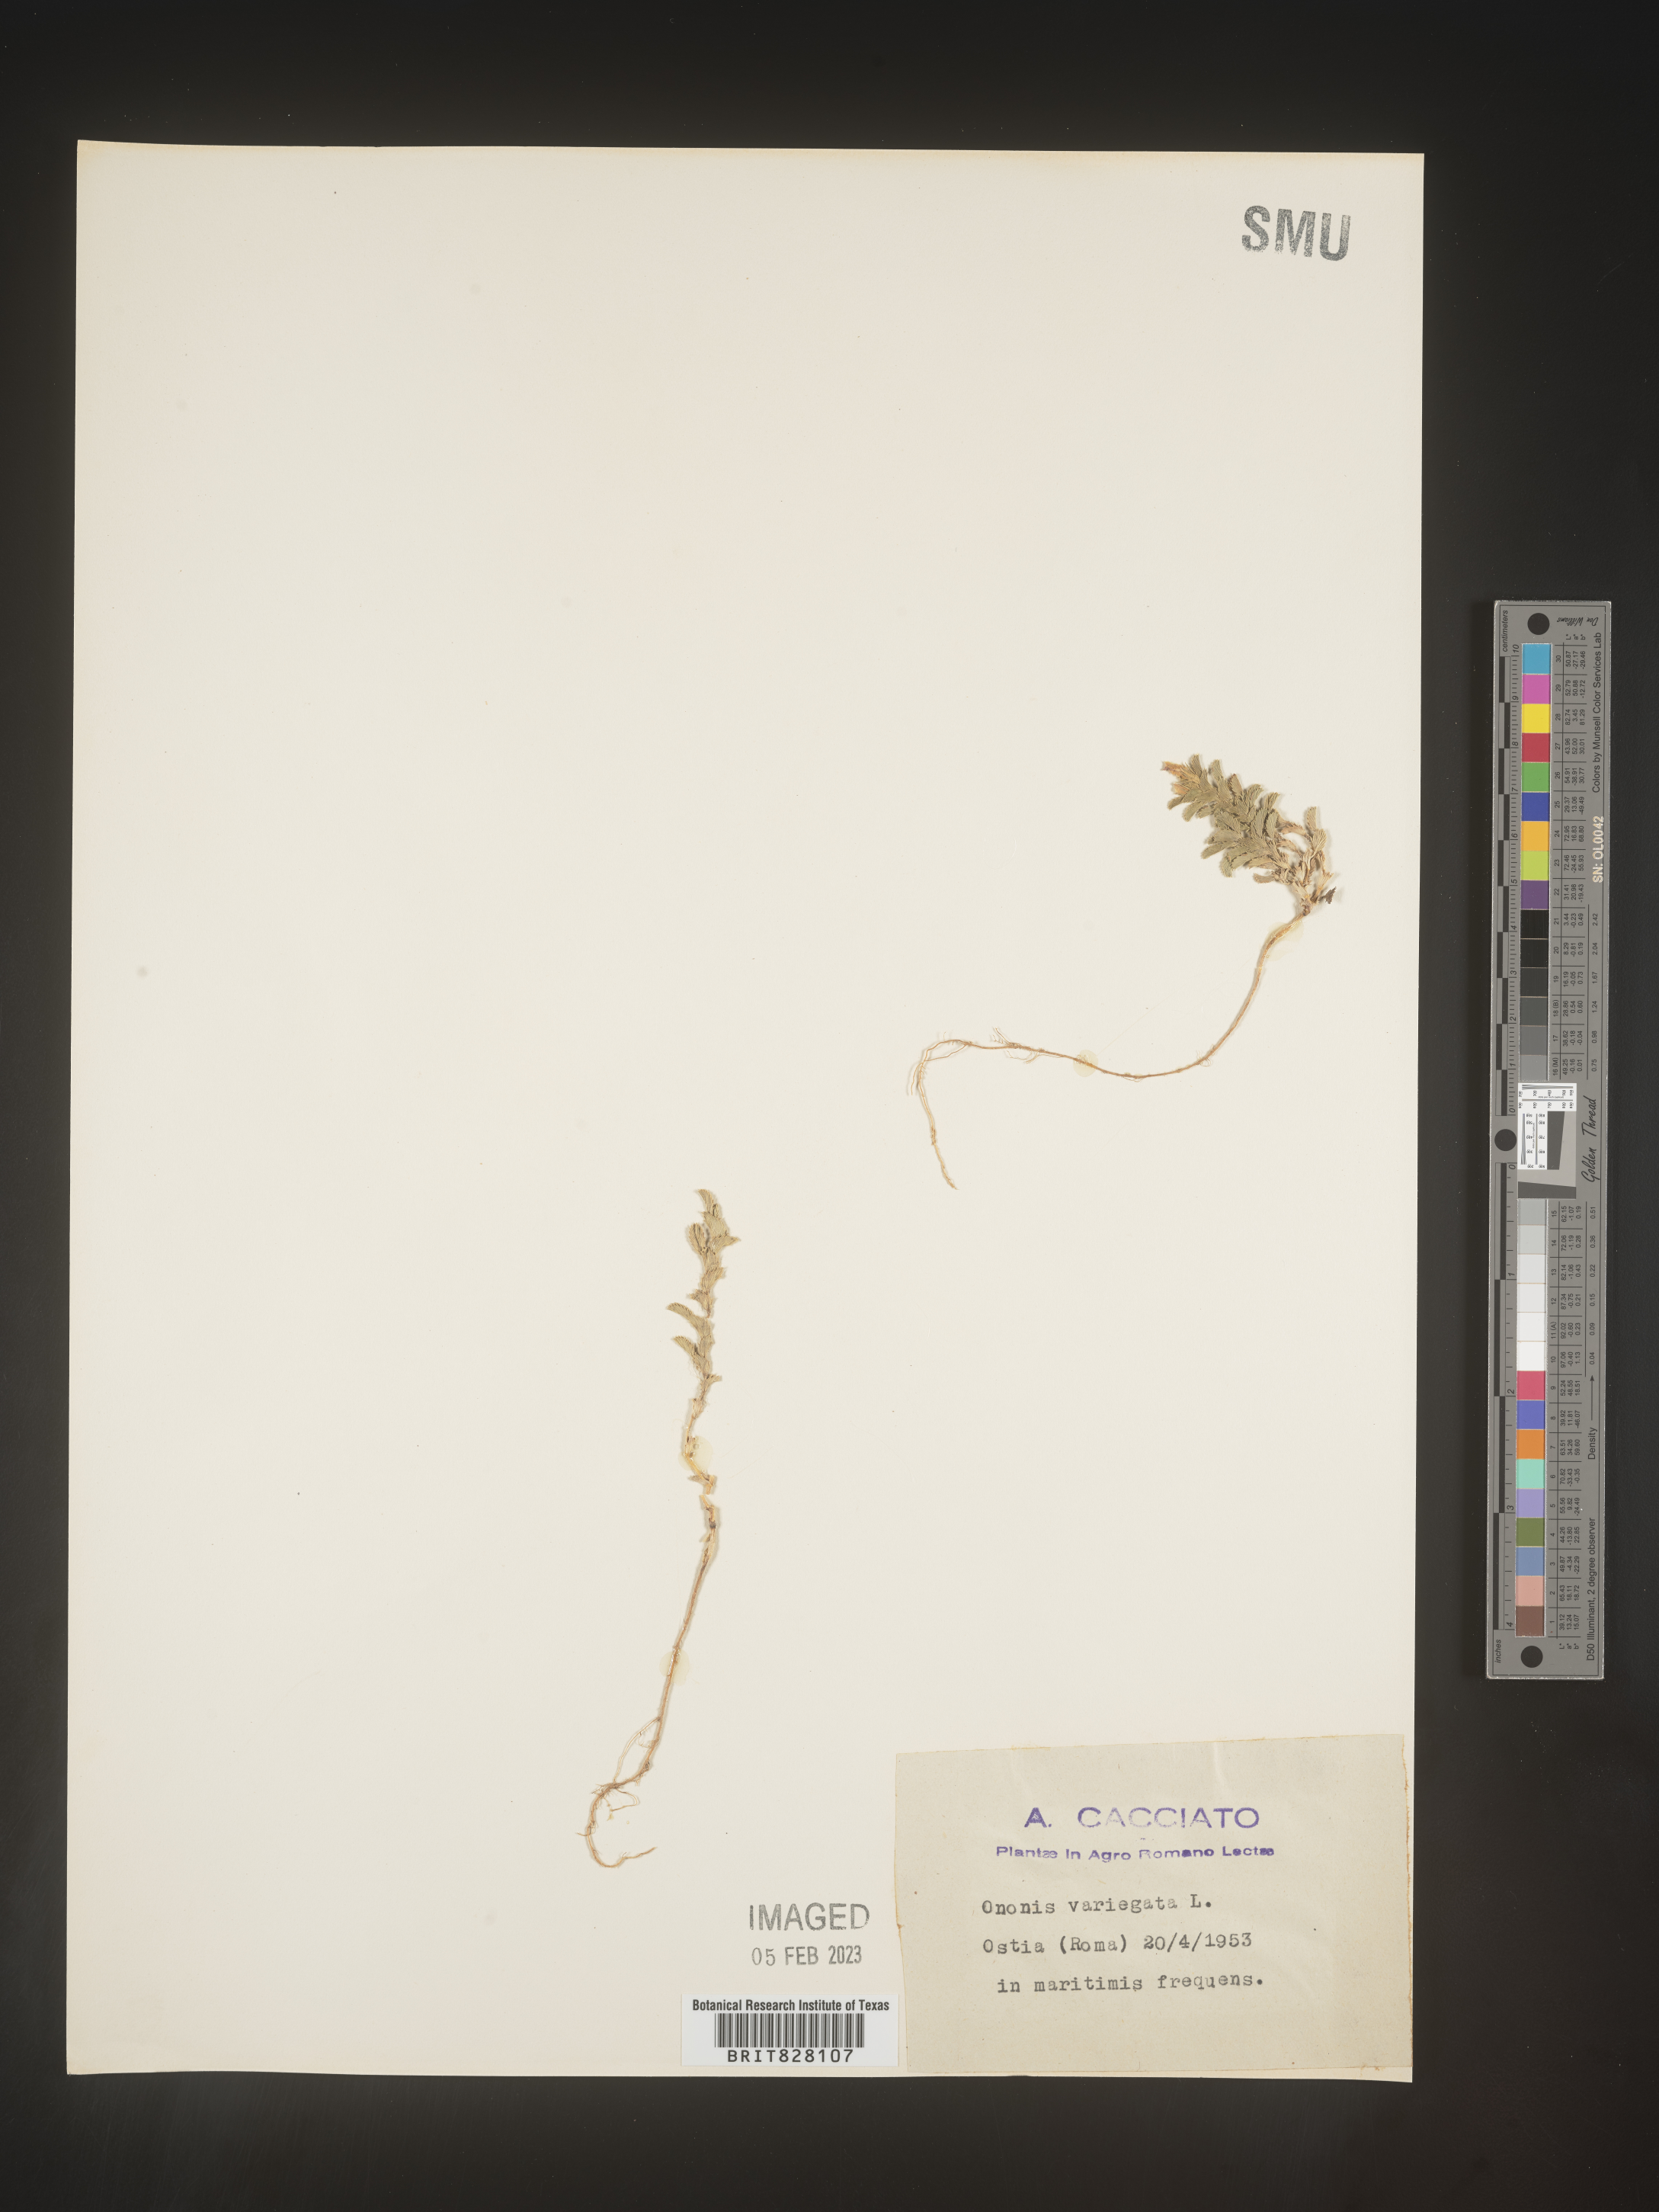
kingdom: Plantae
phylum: Tracheophyta
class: Magnoliopsida
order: Fabales
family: Fabaceae
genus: Ononis
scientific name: Ononis
